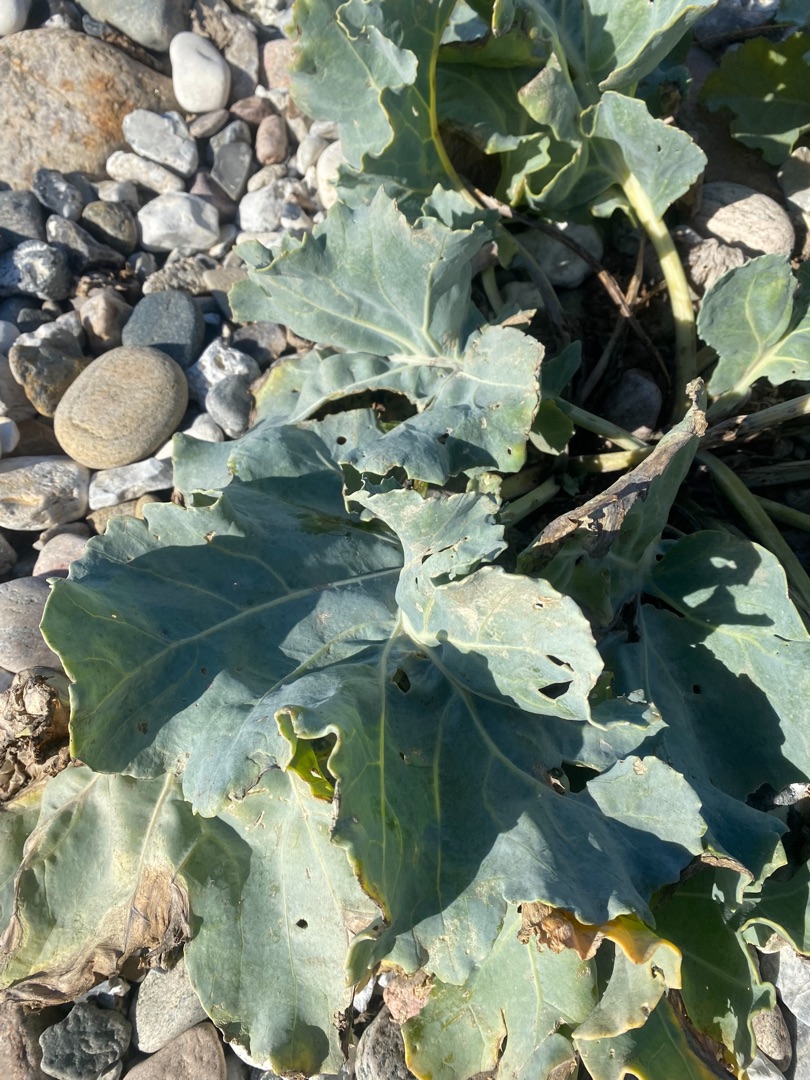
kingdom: Plantae
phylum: Tracheophyta
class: Magnoliopsida
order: Brassicales
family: Brassicaceae
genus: Crambe
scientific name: Crambe maritima
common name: Strandkål
